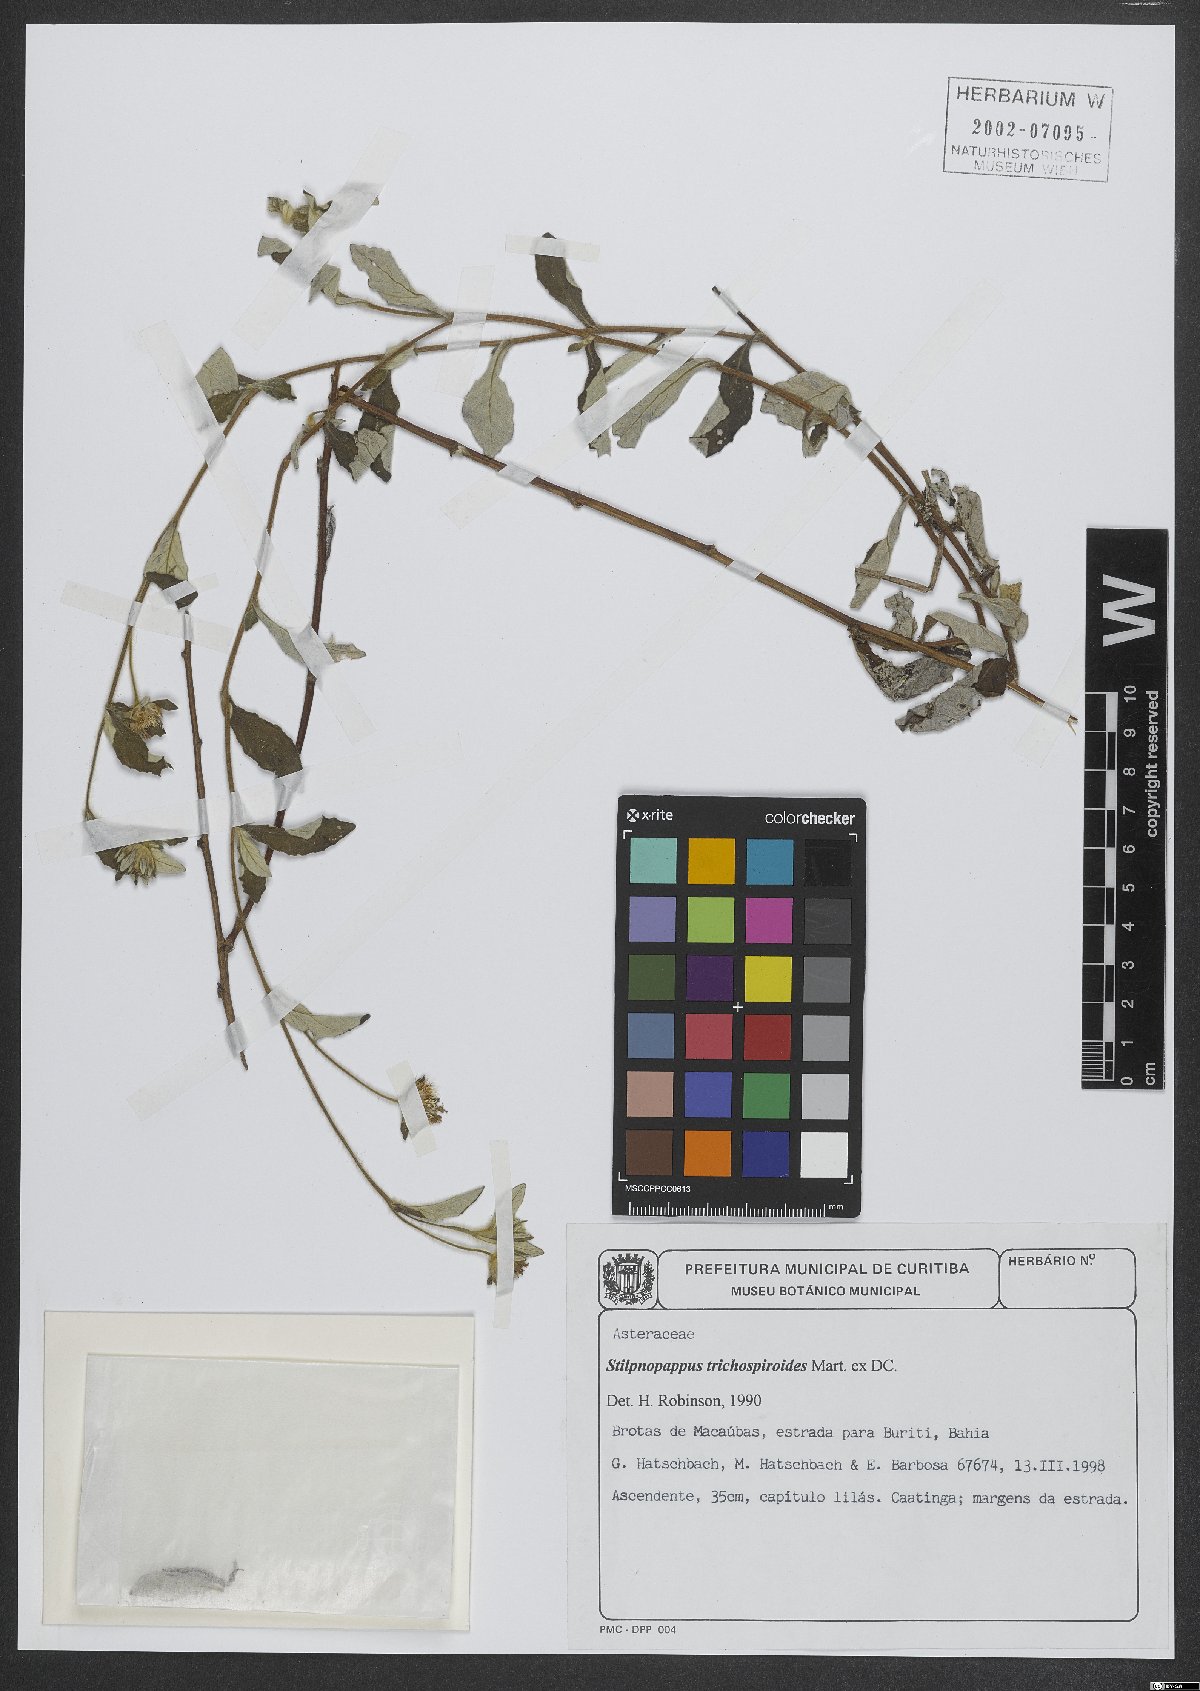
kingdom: Plantae
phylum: Tracheophyta
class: Magnoliopsida
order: Asterales
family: Asteraceae
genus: Stilpnopappus
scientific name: Stilpnopappus trichospiroides
